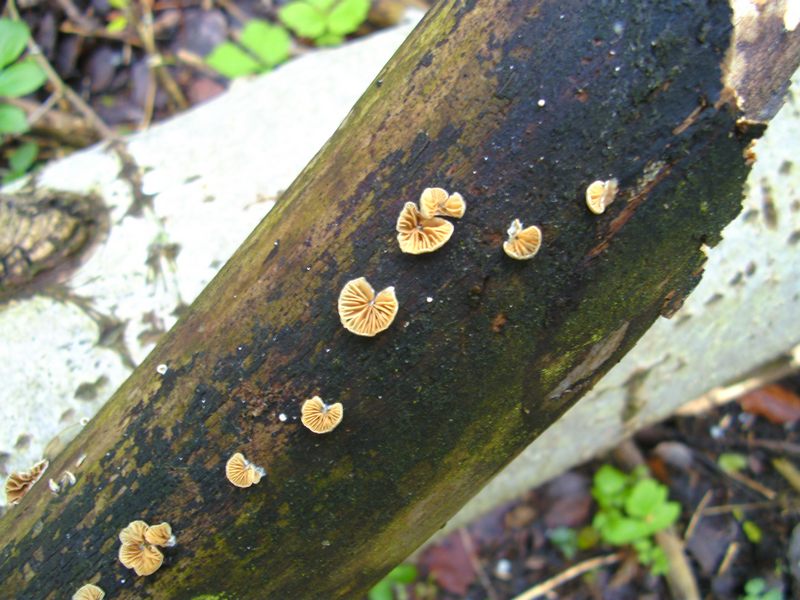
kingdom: Fungi
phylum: Basidiomycota
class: Agaricomycetes
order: Agaricales
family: Crepidotaceae
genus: Crepidotus
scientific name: Crepidotus cesatii
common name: almindelig muslingesvamp
